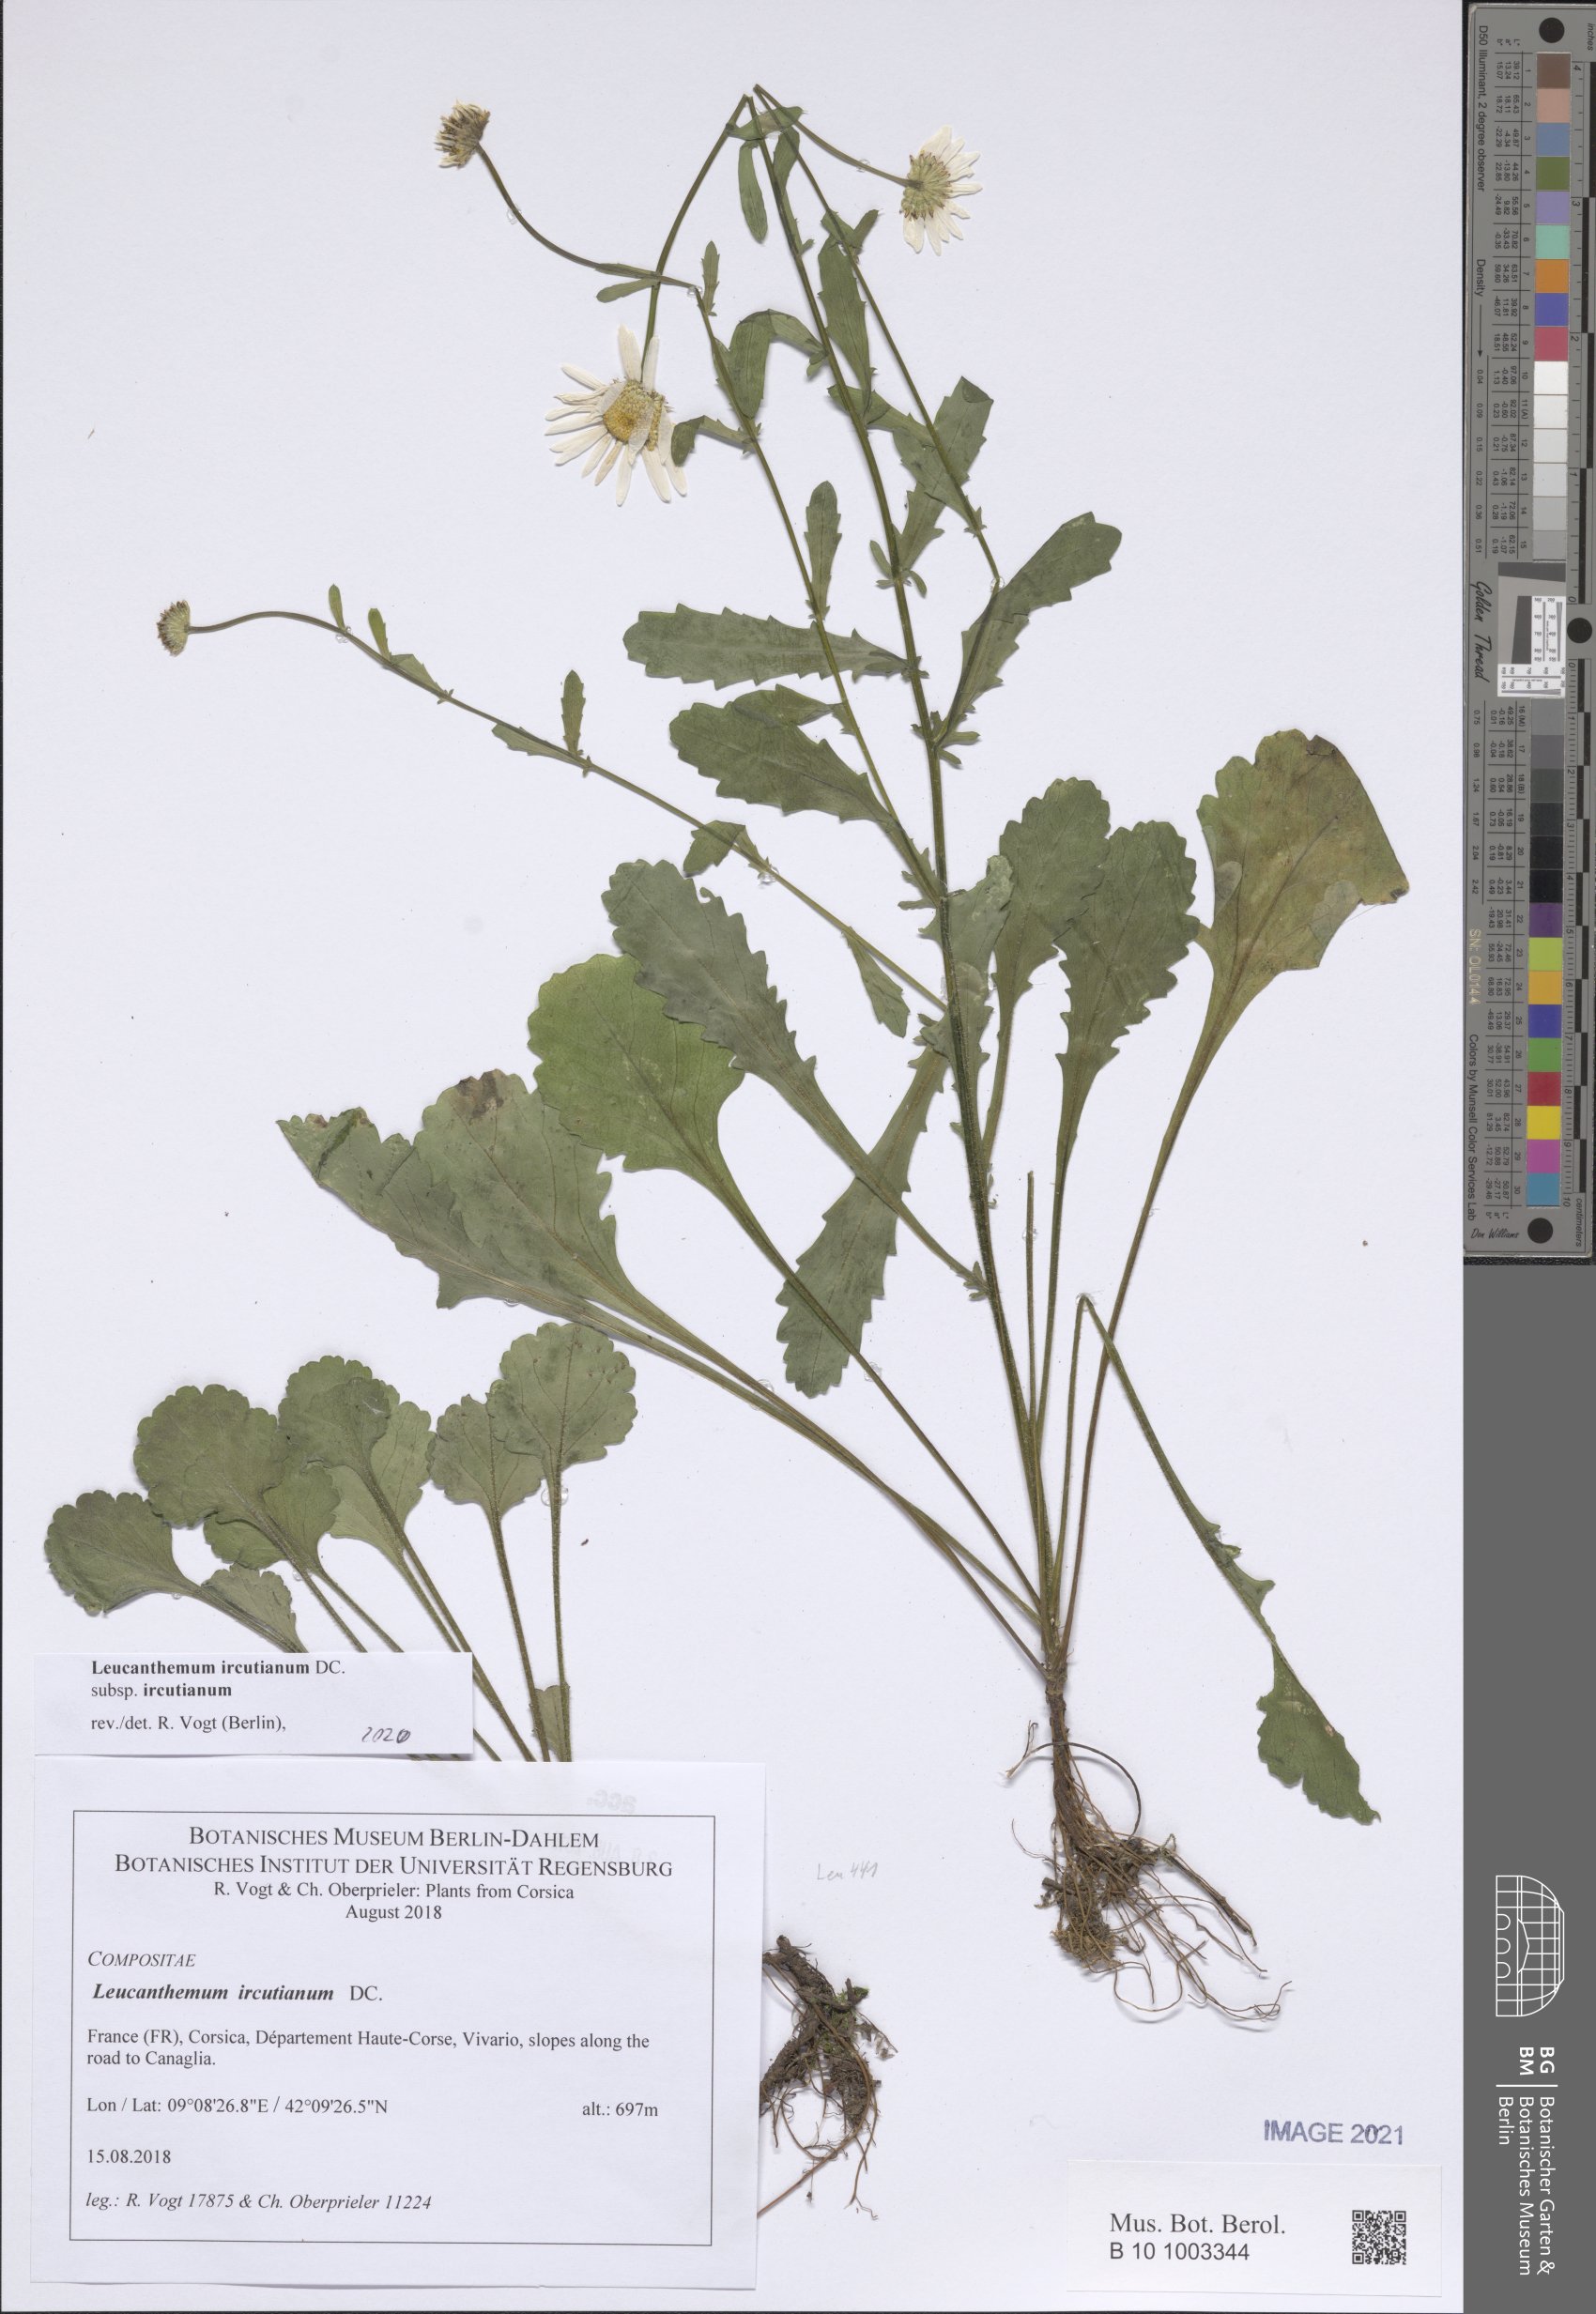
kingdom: Plantae
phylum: Tracheophyta
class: Magnoliopsida
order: Asterales
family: Asteraceae
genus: Leucanthemum
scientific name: Leucanthemum ircutianum
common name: Daisy
